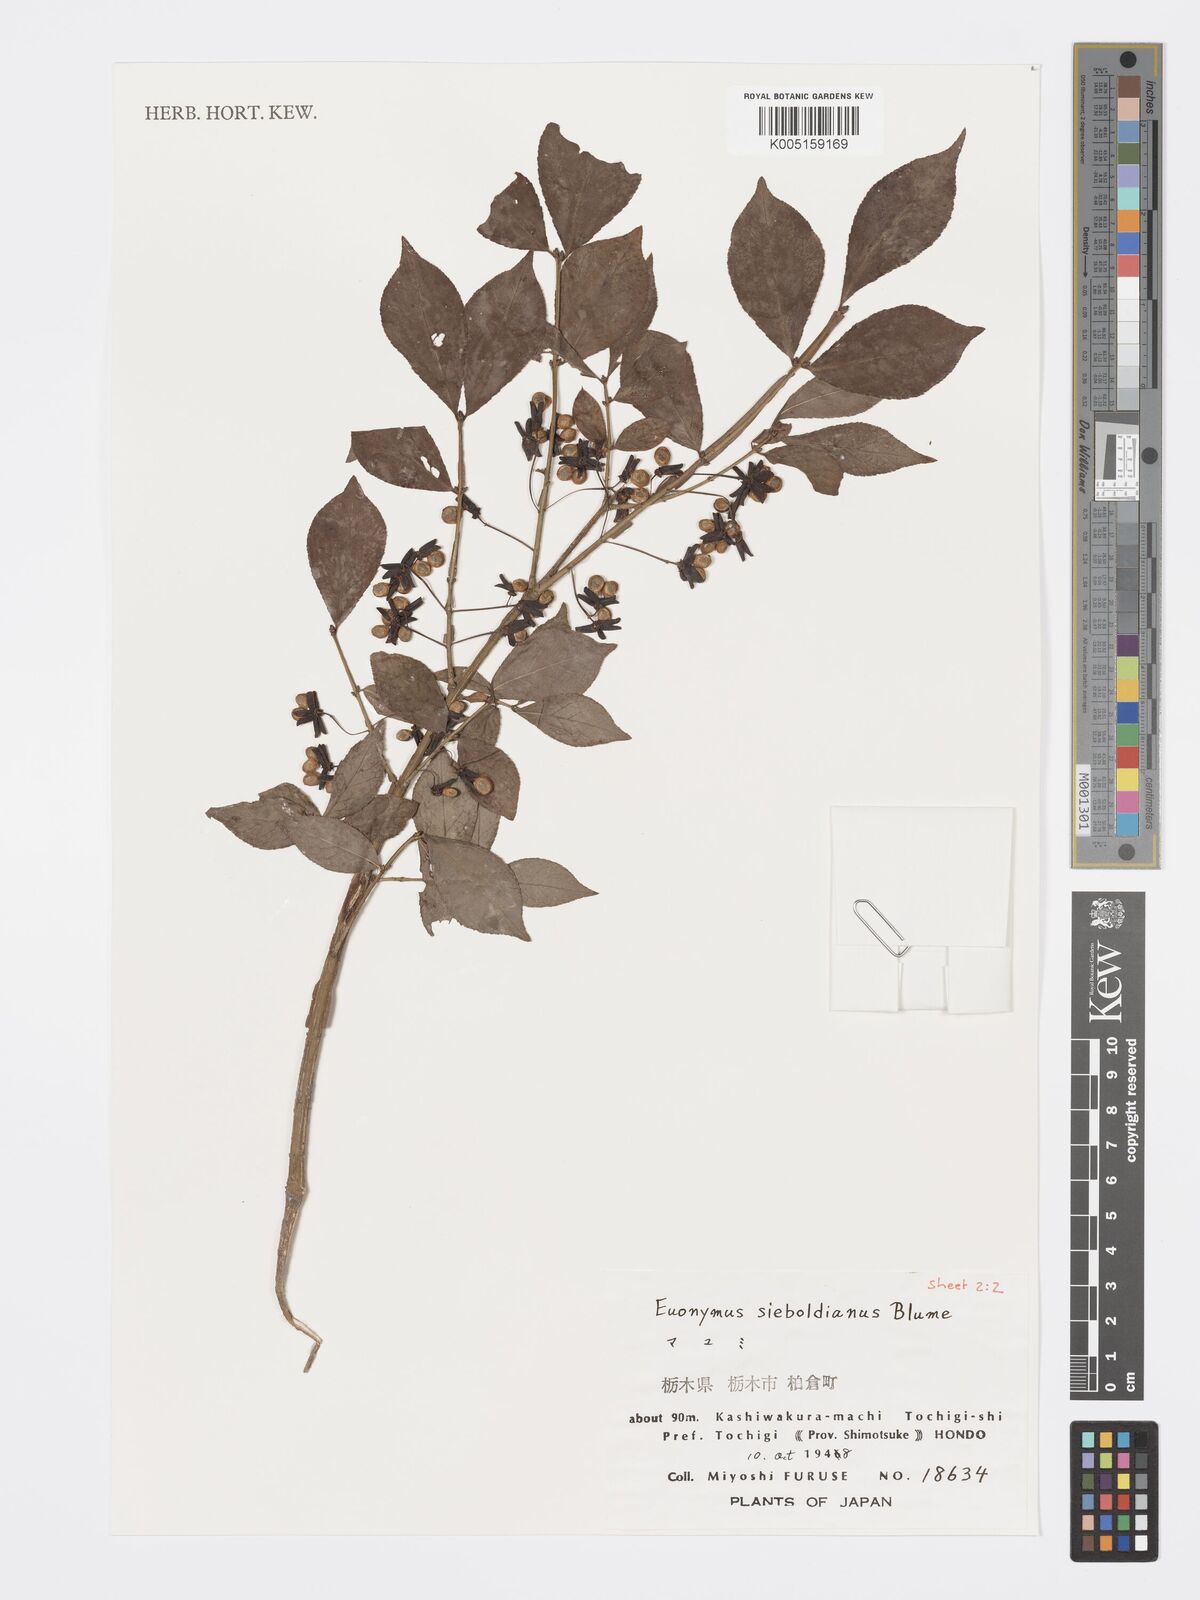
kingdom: Plantae
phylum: Tracheophyta
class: Magnoliopsida
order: Celastrales
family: Celastraceae
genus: Euonymus
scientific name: Euonymus hamiltonianus
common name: Hamilton's spindletree
